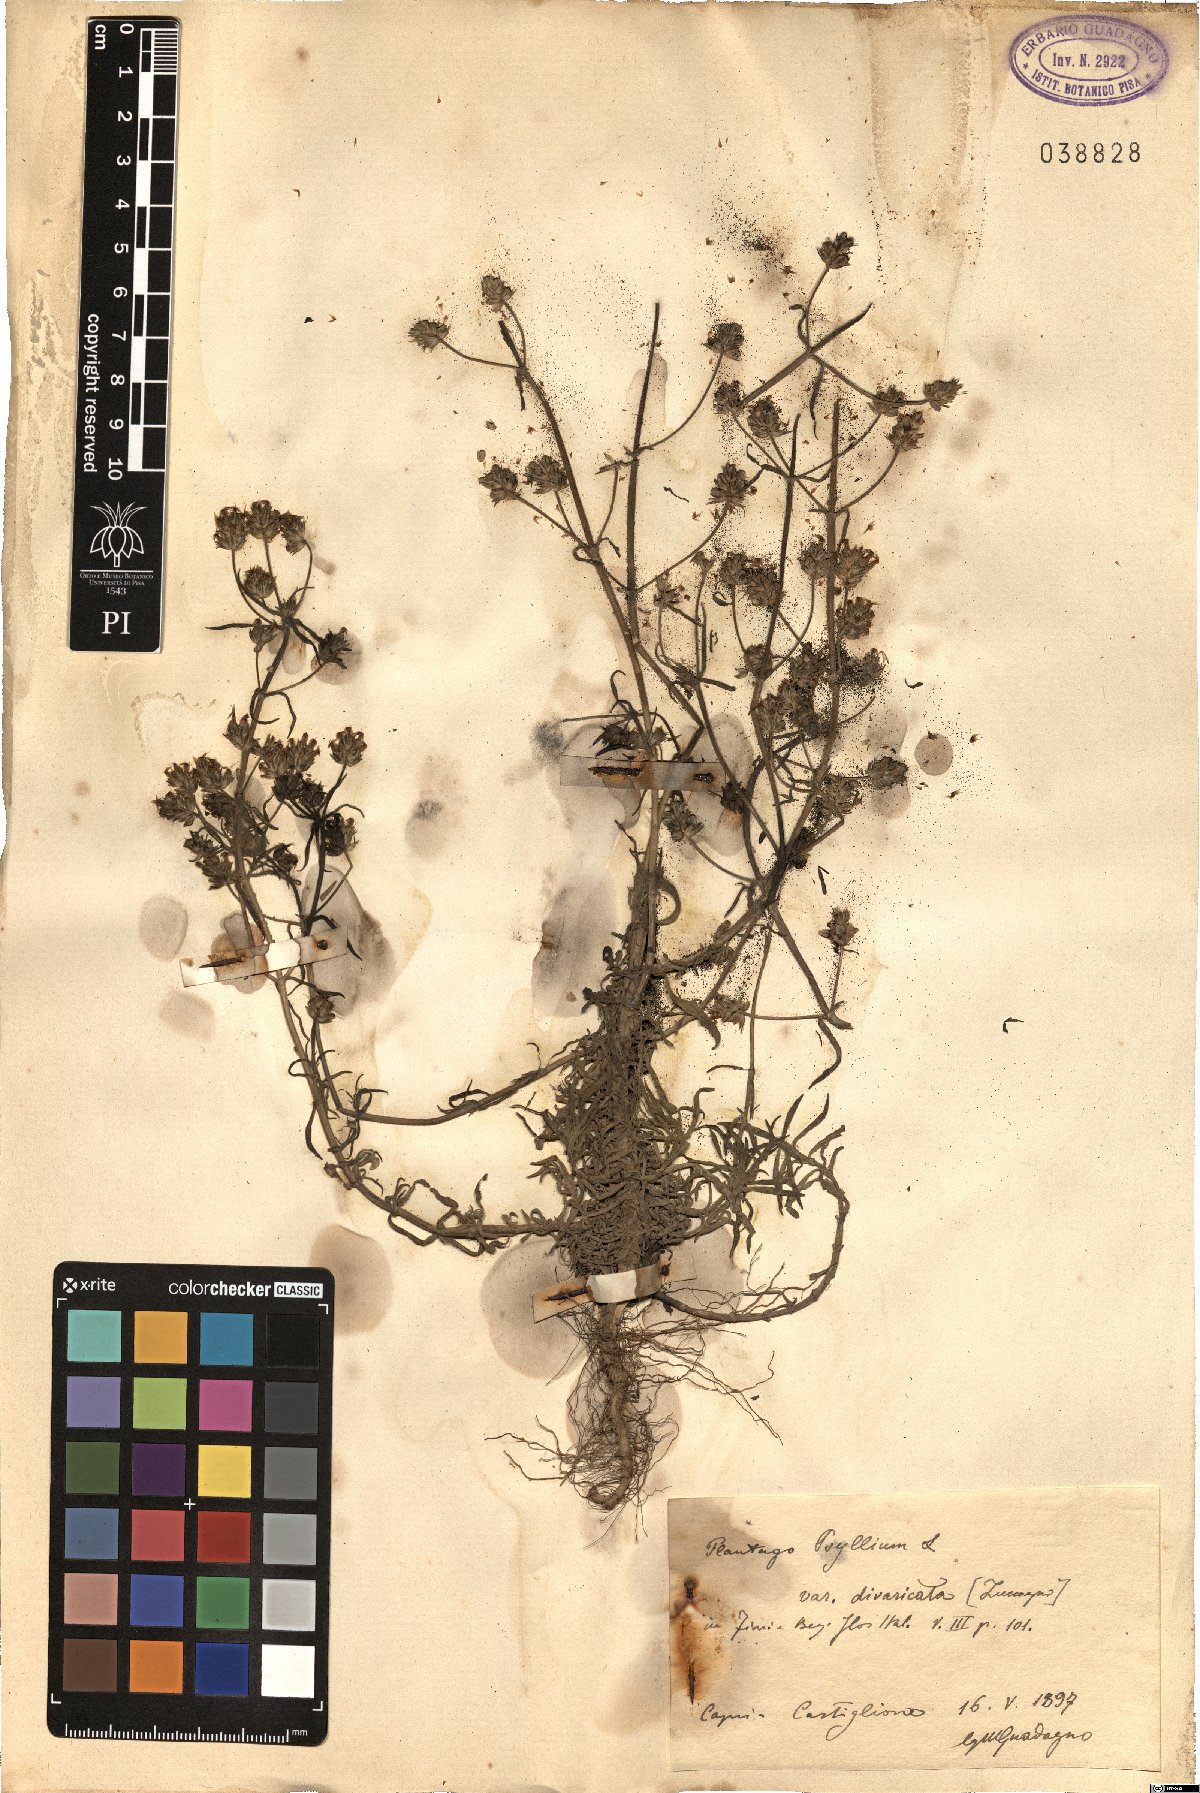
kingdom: Plantae
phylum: Tracheophyta
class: Magnoliopsida
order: Lamiales
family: Plantaginaceae
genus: Plantago
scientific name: Plantago psyllium
